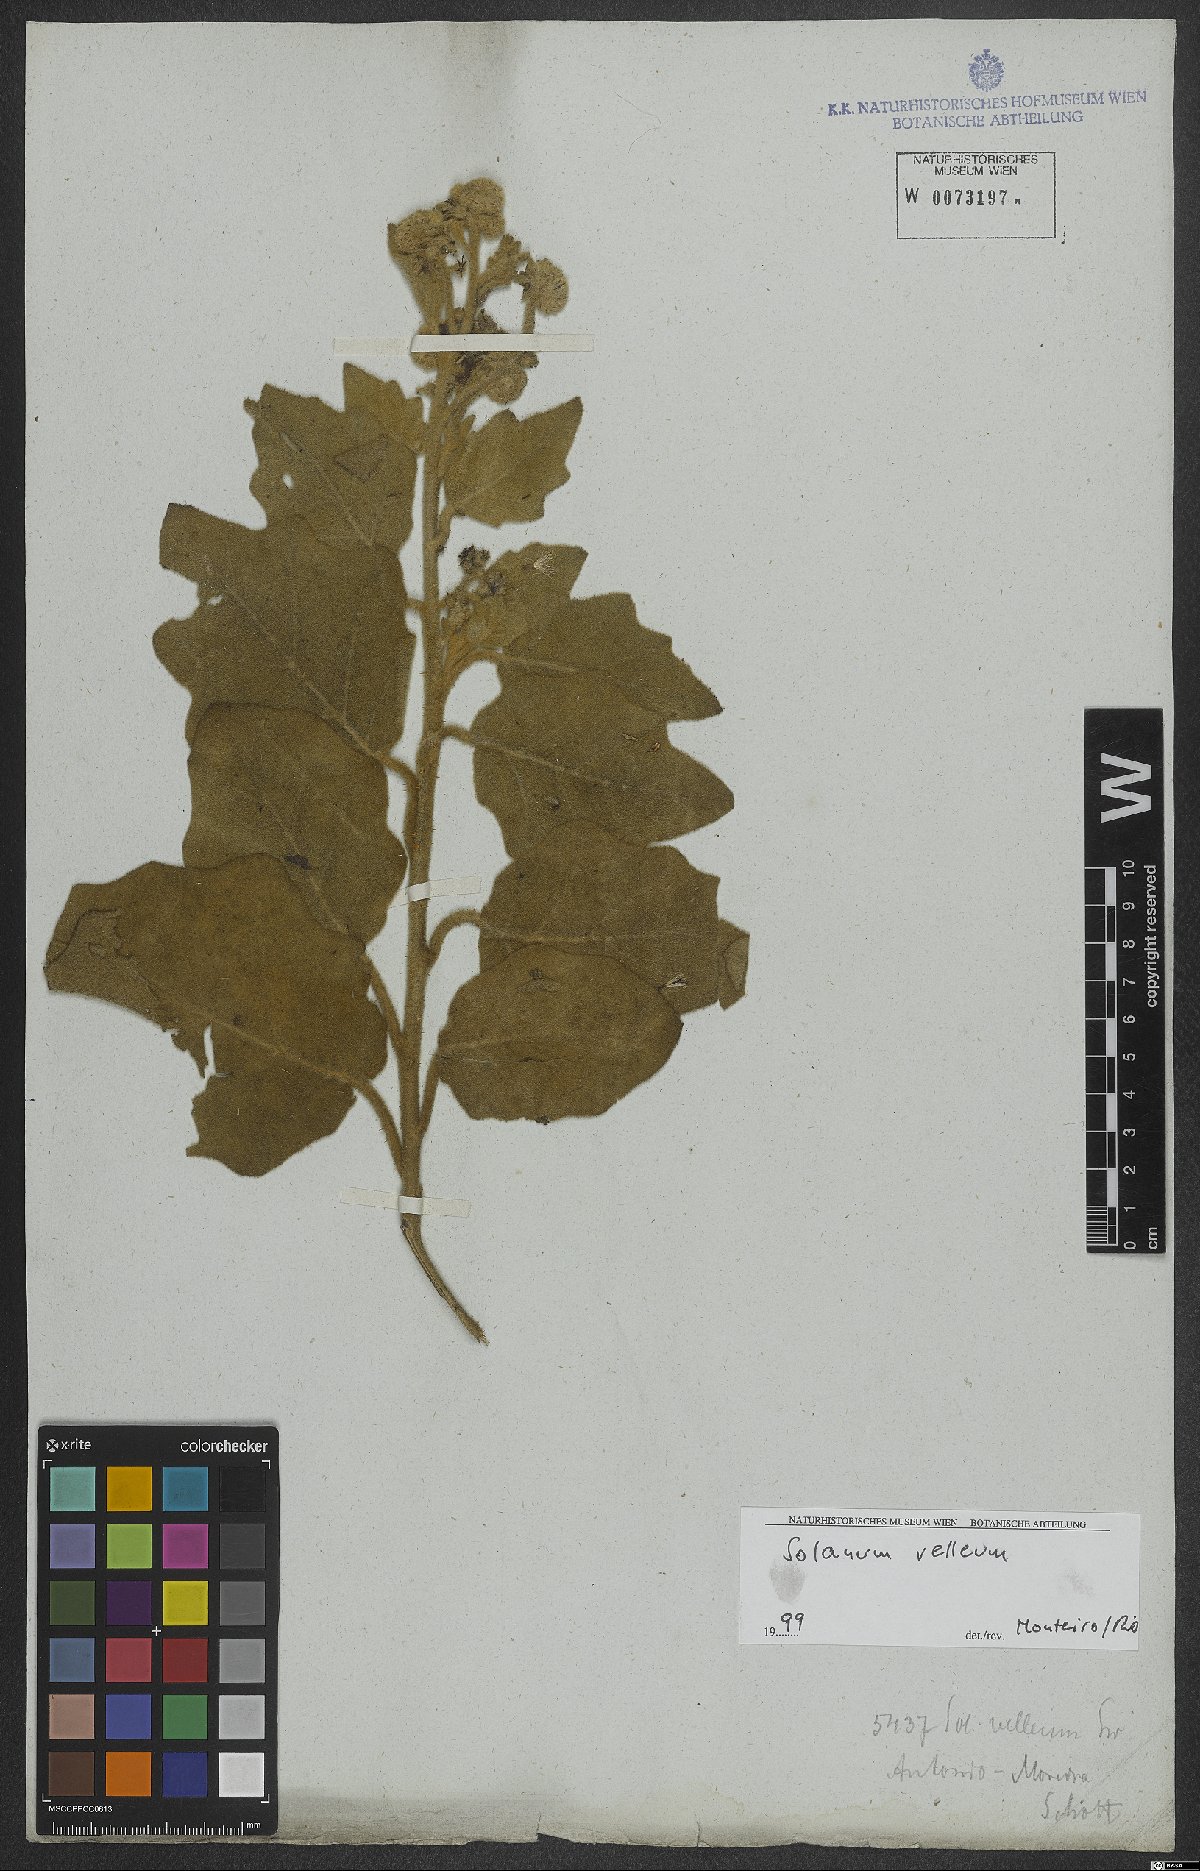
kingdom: Plantae
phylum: Tracheophyta
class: Magnoliopsida
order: Solanales
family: Solanaceae
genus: Solanum
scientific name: Solanum velleum
